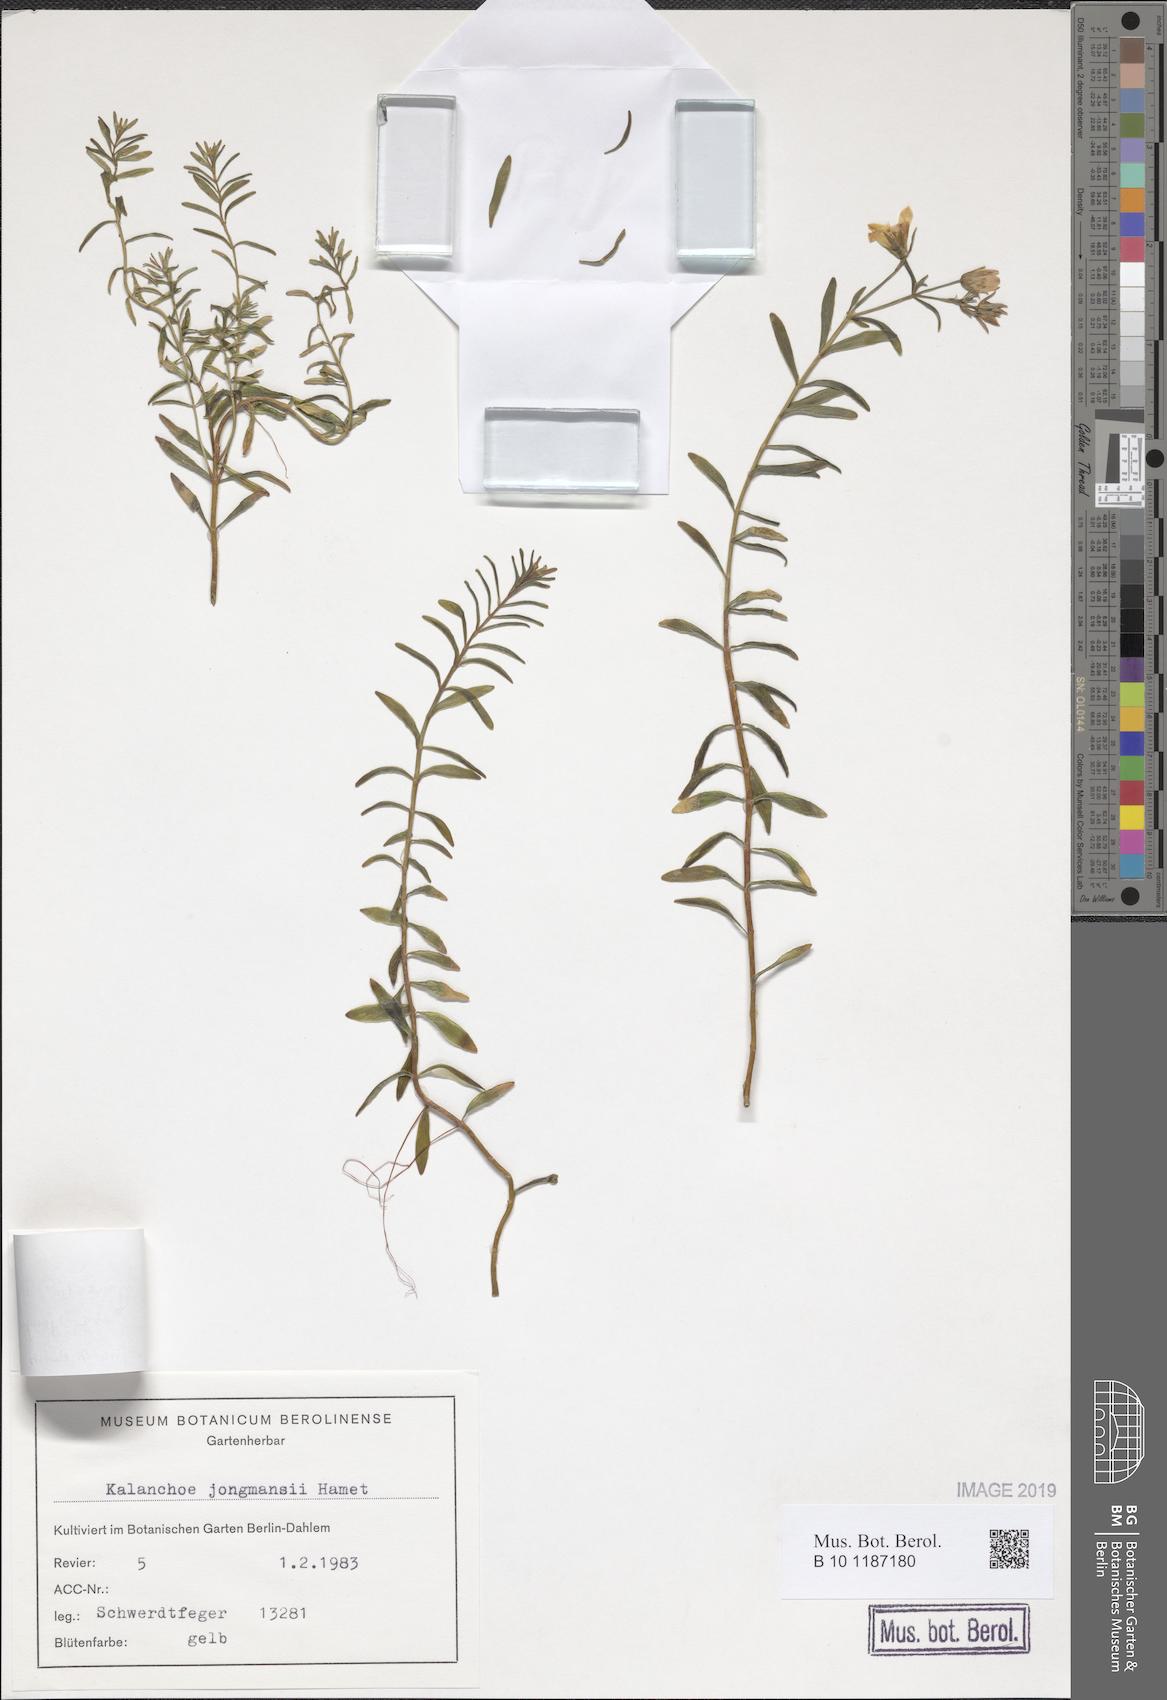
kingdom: Plantae
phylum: Tracheophyta
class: Magnoliopsida
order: Saxifragales
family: Crassulaceae
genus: Kalanchoe
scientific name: Kalanchoe jongmansii
